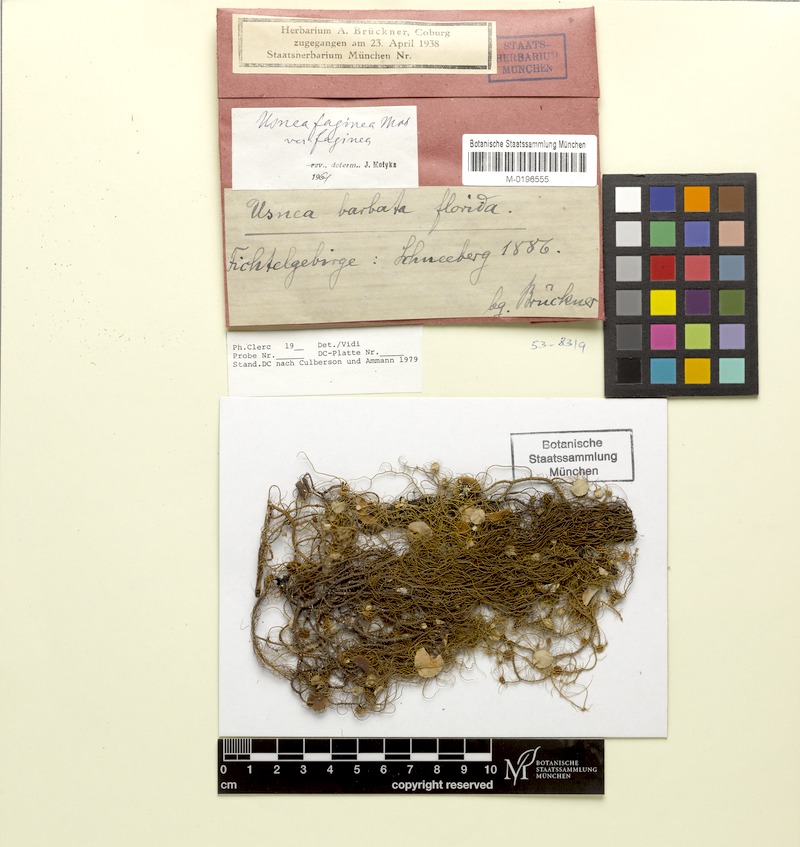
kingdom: Fungi
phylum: Ascomycota
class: Lecanoromycetes
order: Lecanorales
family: Parmeliaceae
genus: Usnea
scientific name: Usnea quasirigida
